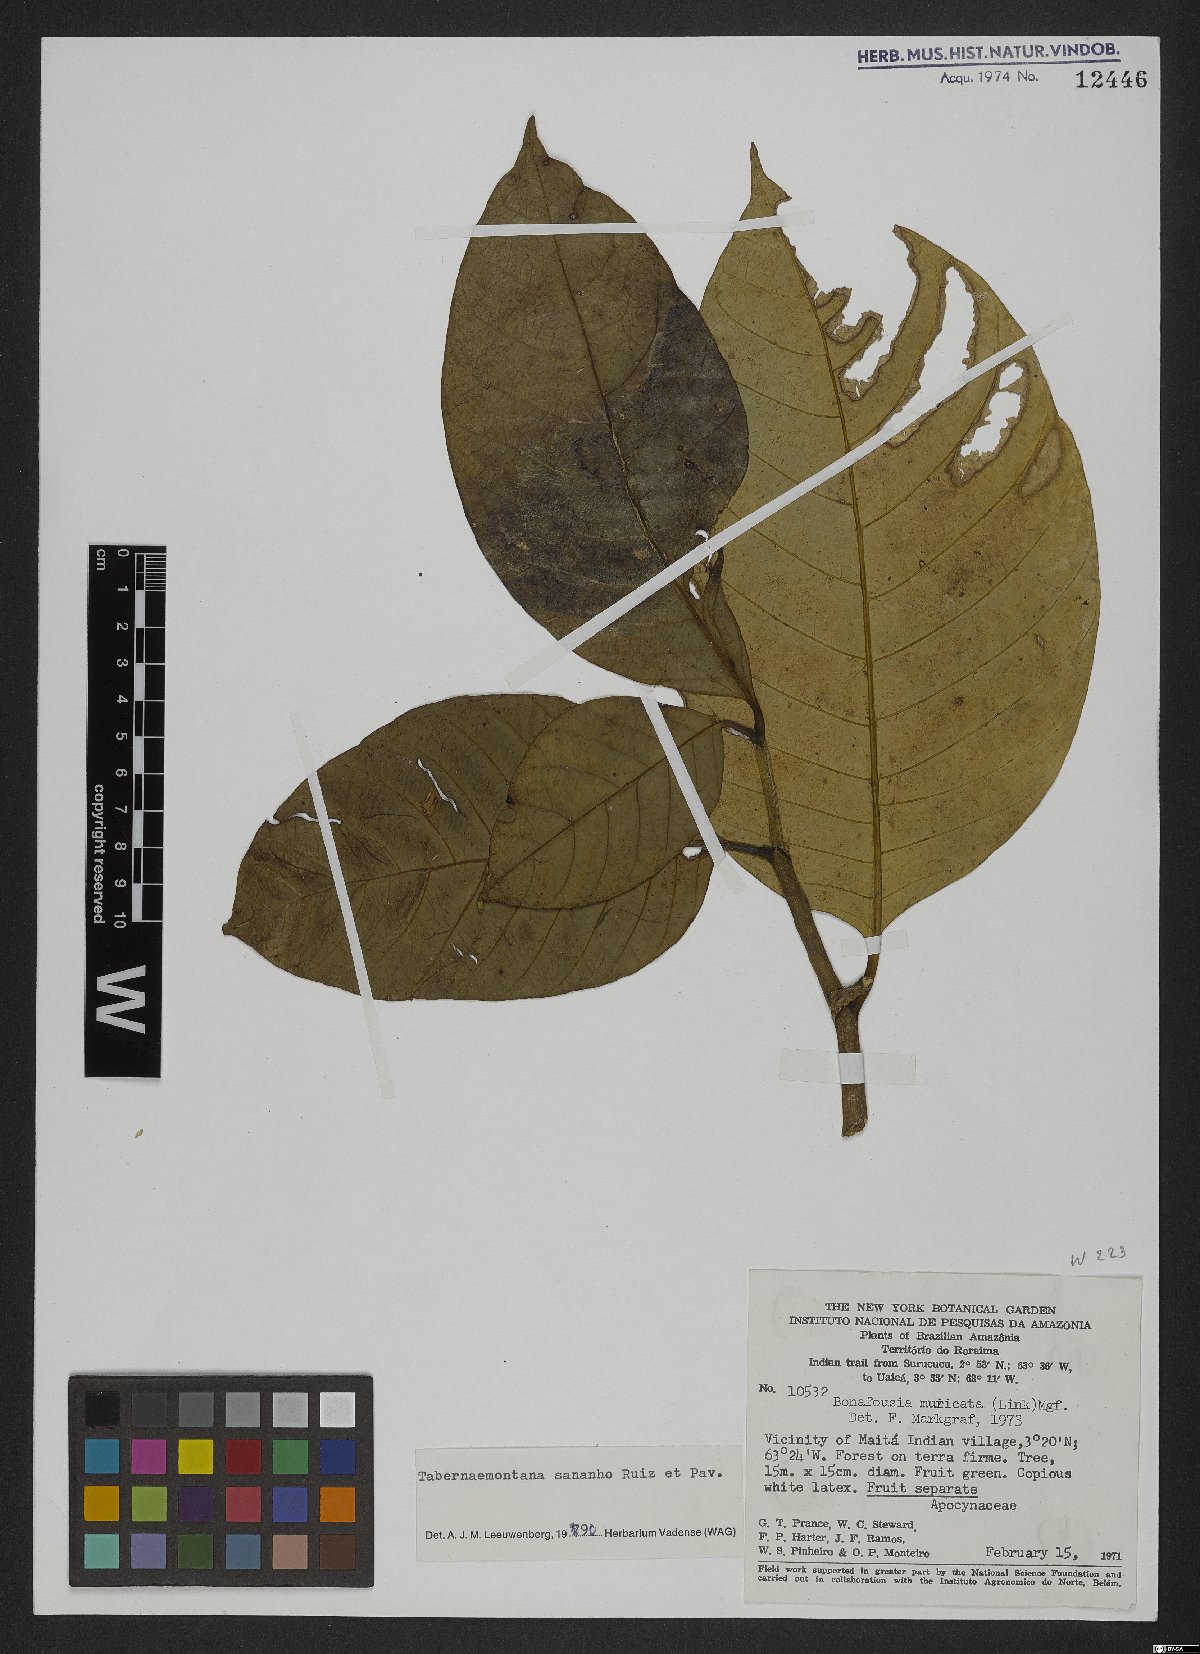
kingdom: Plantae
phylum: Tracheophyta
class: Magnoliopsida
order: Gentianales
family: Apocynaceae
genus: Tabernaemontana
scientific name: Tabernaemontana sananho
